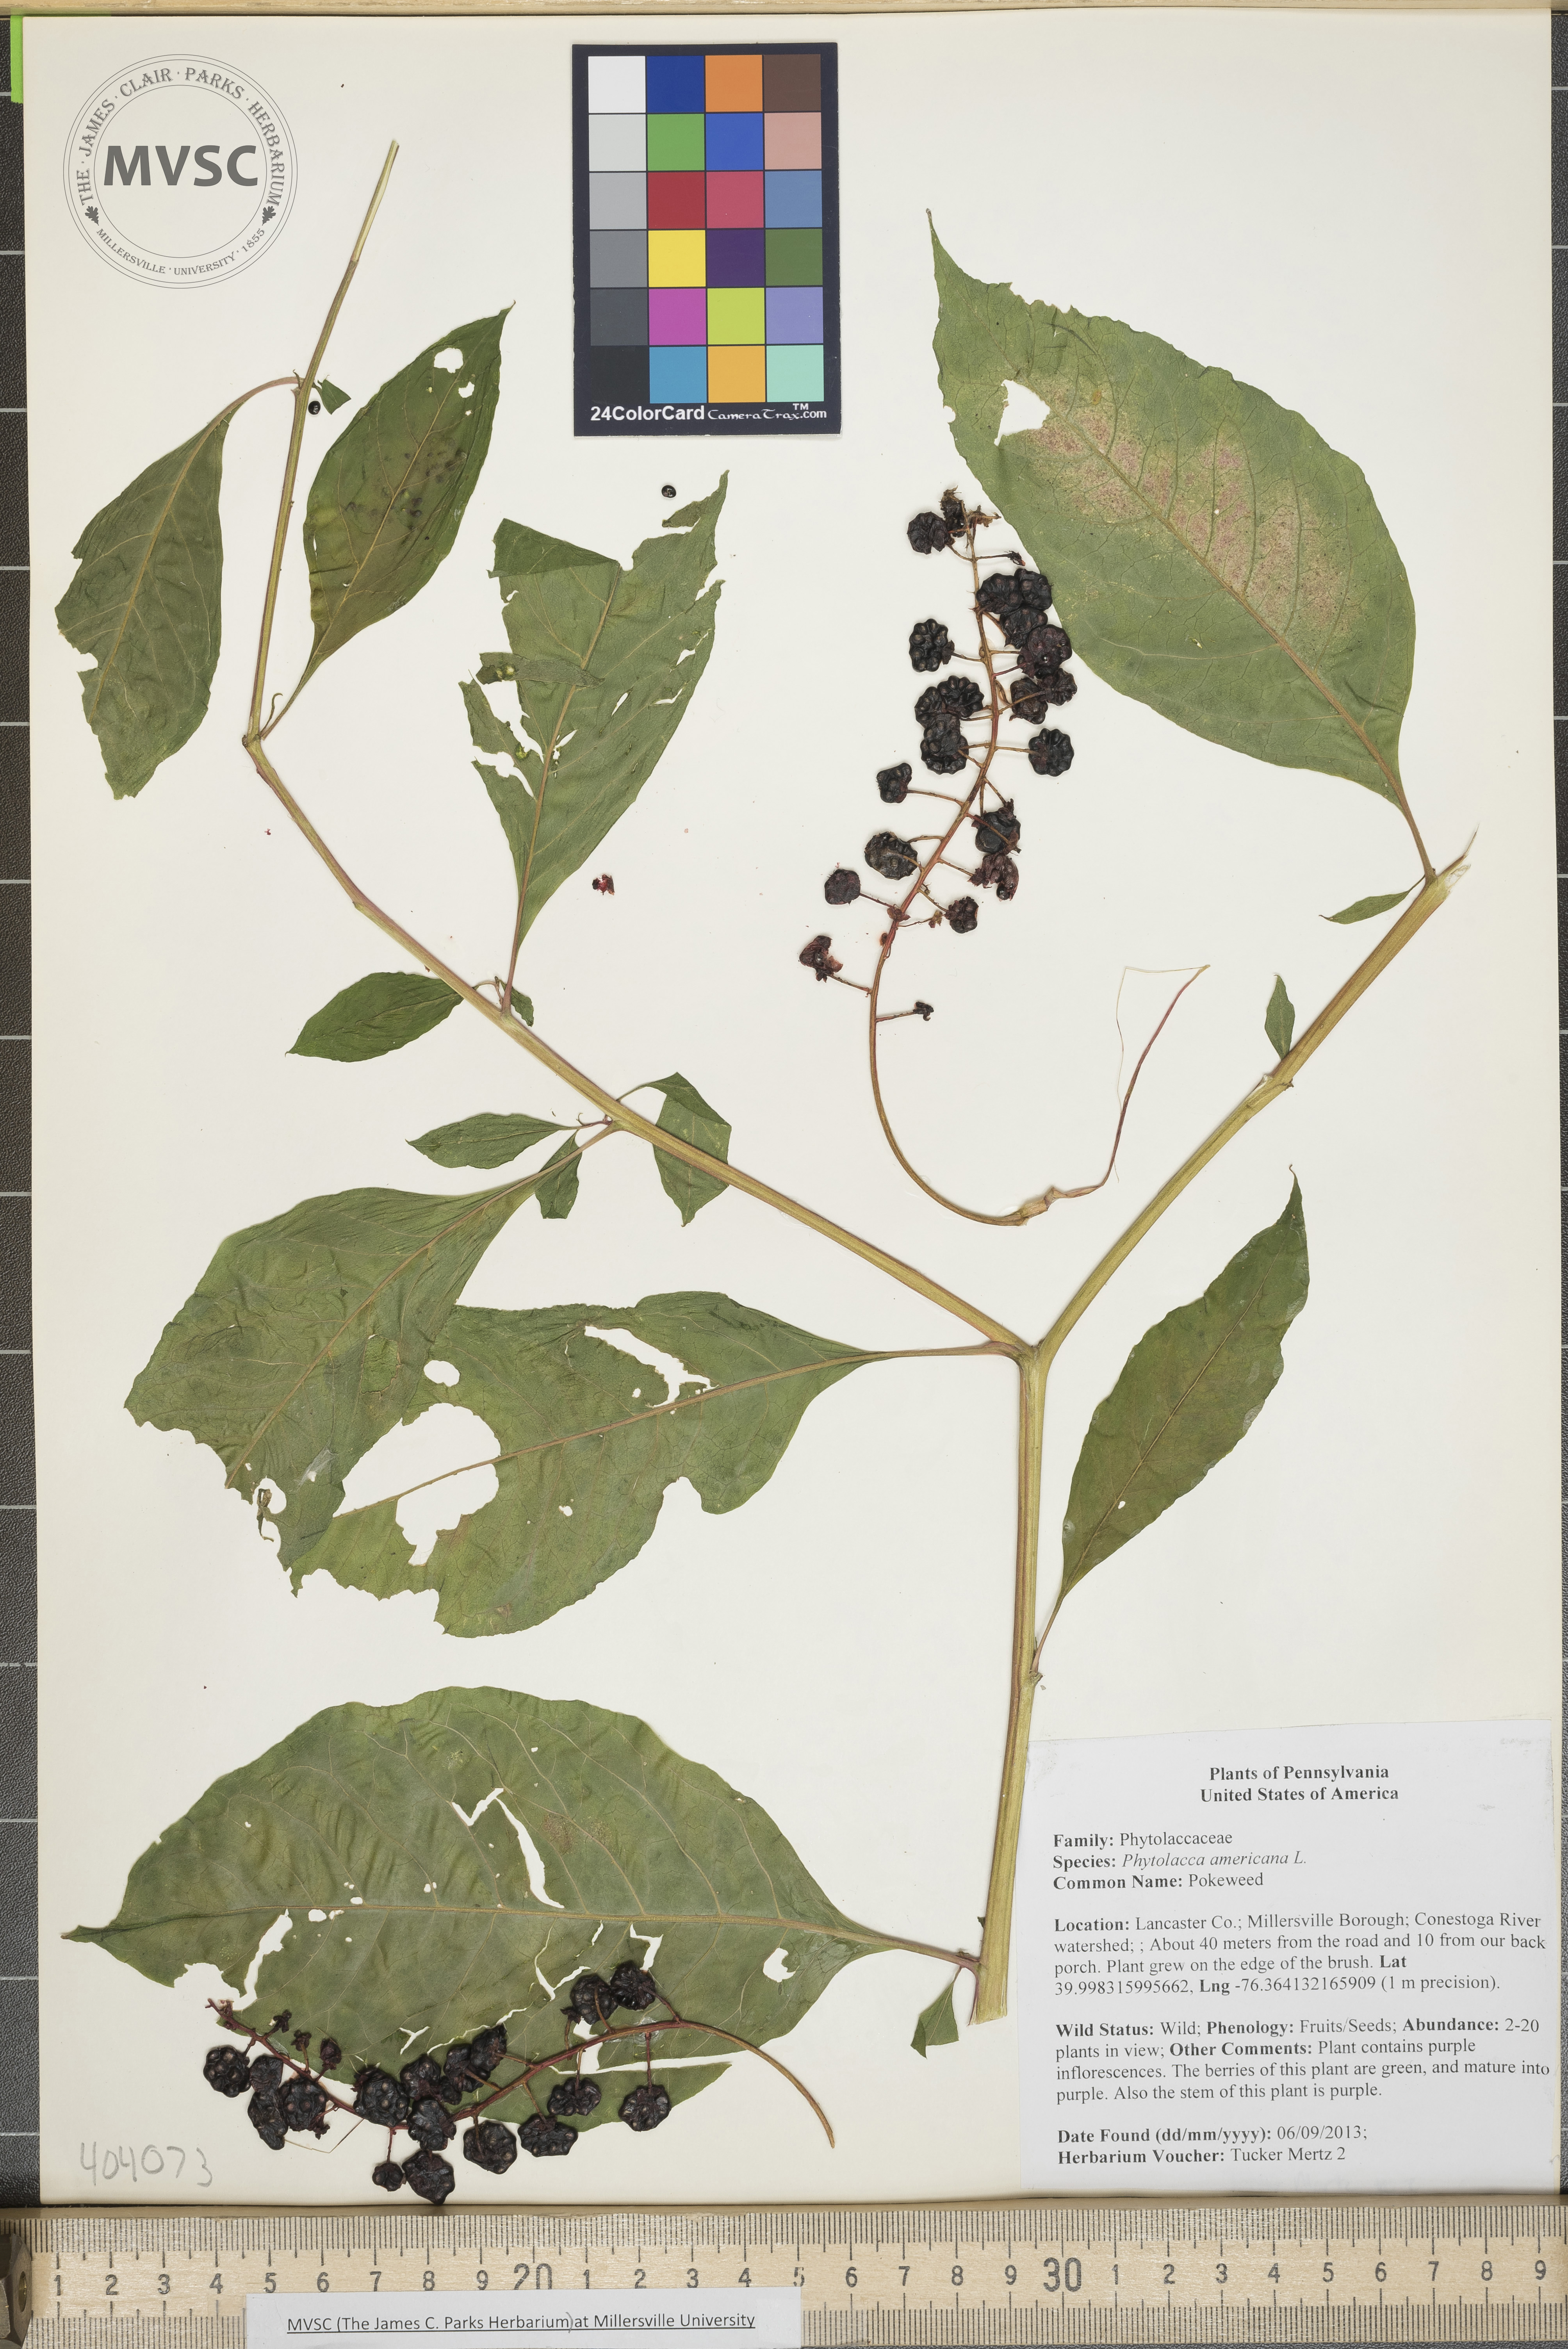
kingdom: Plantae
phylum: Tracheophyta
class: Magnoliopsida
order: Caryophyllales
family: Phytolaccaceae
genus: Phytolacca
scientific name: Phytolacca americana
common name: Pokeweed
